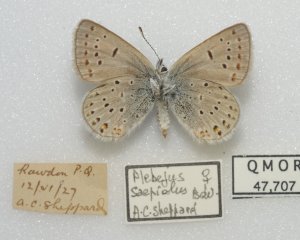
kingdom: Animalia
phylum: Arthropoda
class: Insecta
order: Lepidoptera
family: Lycaenidae
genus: Plebejus
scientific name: Plebejus saepiolus
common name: Greenish Blue
